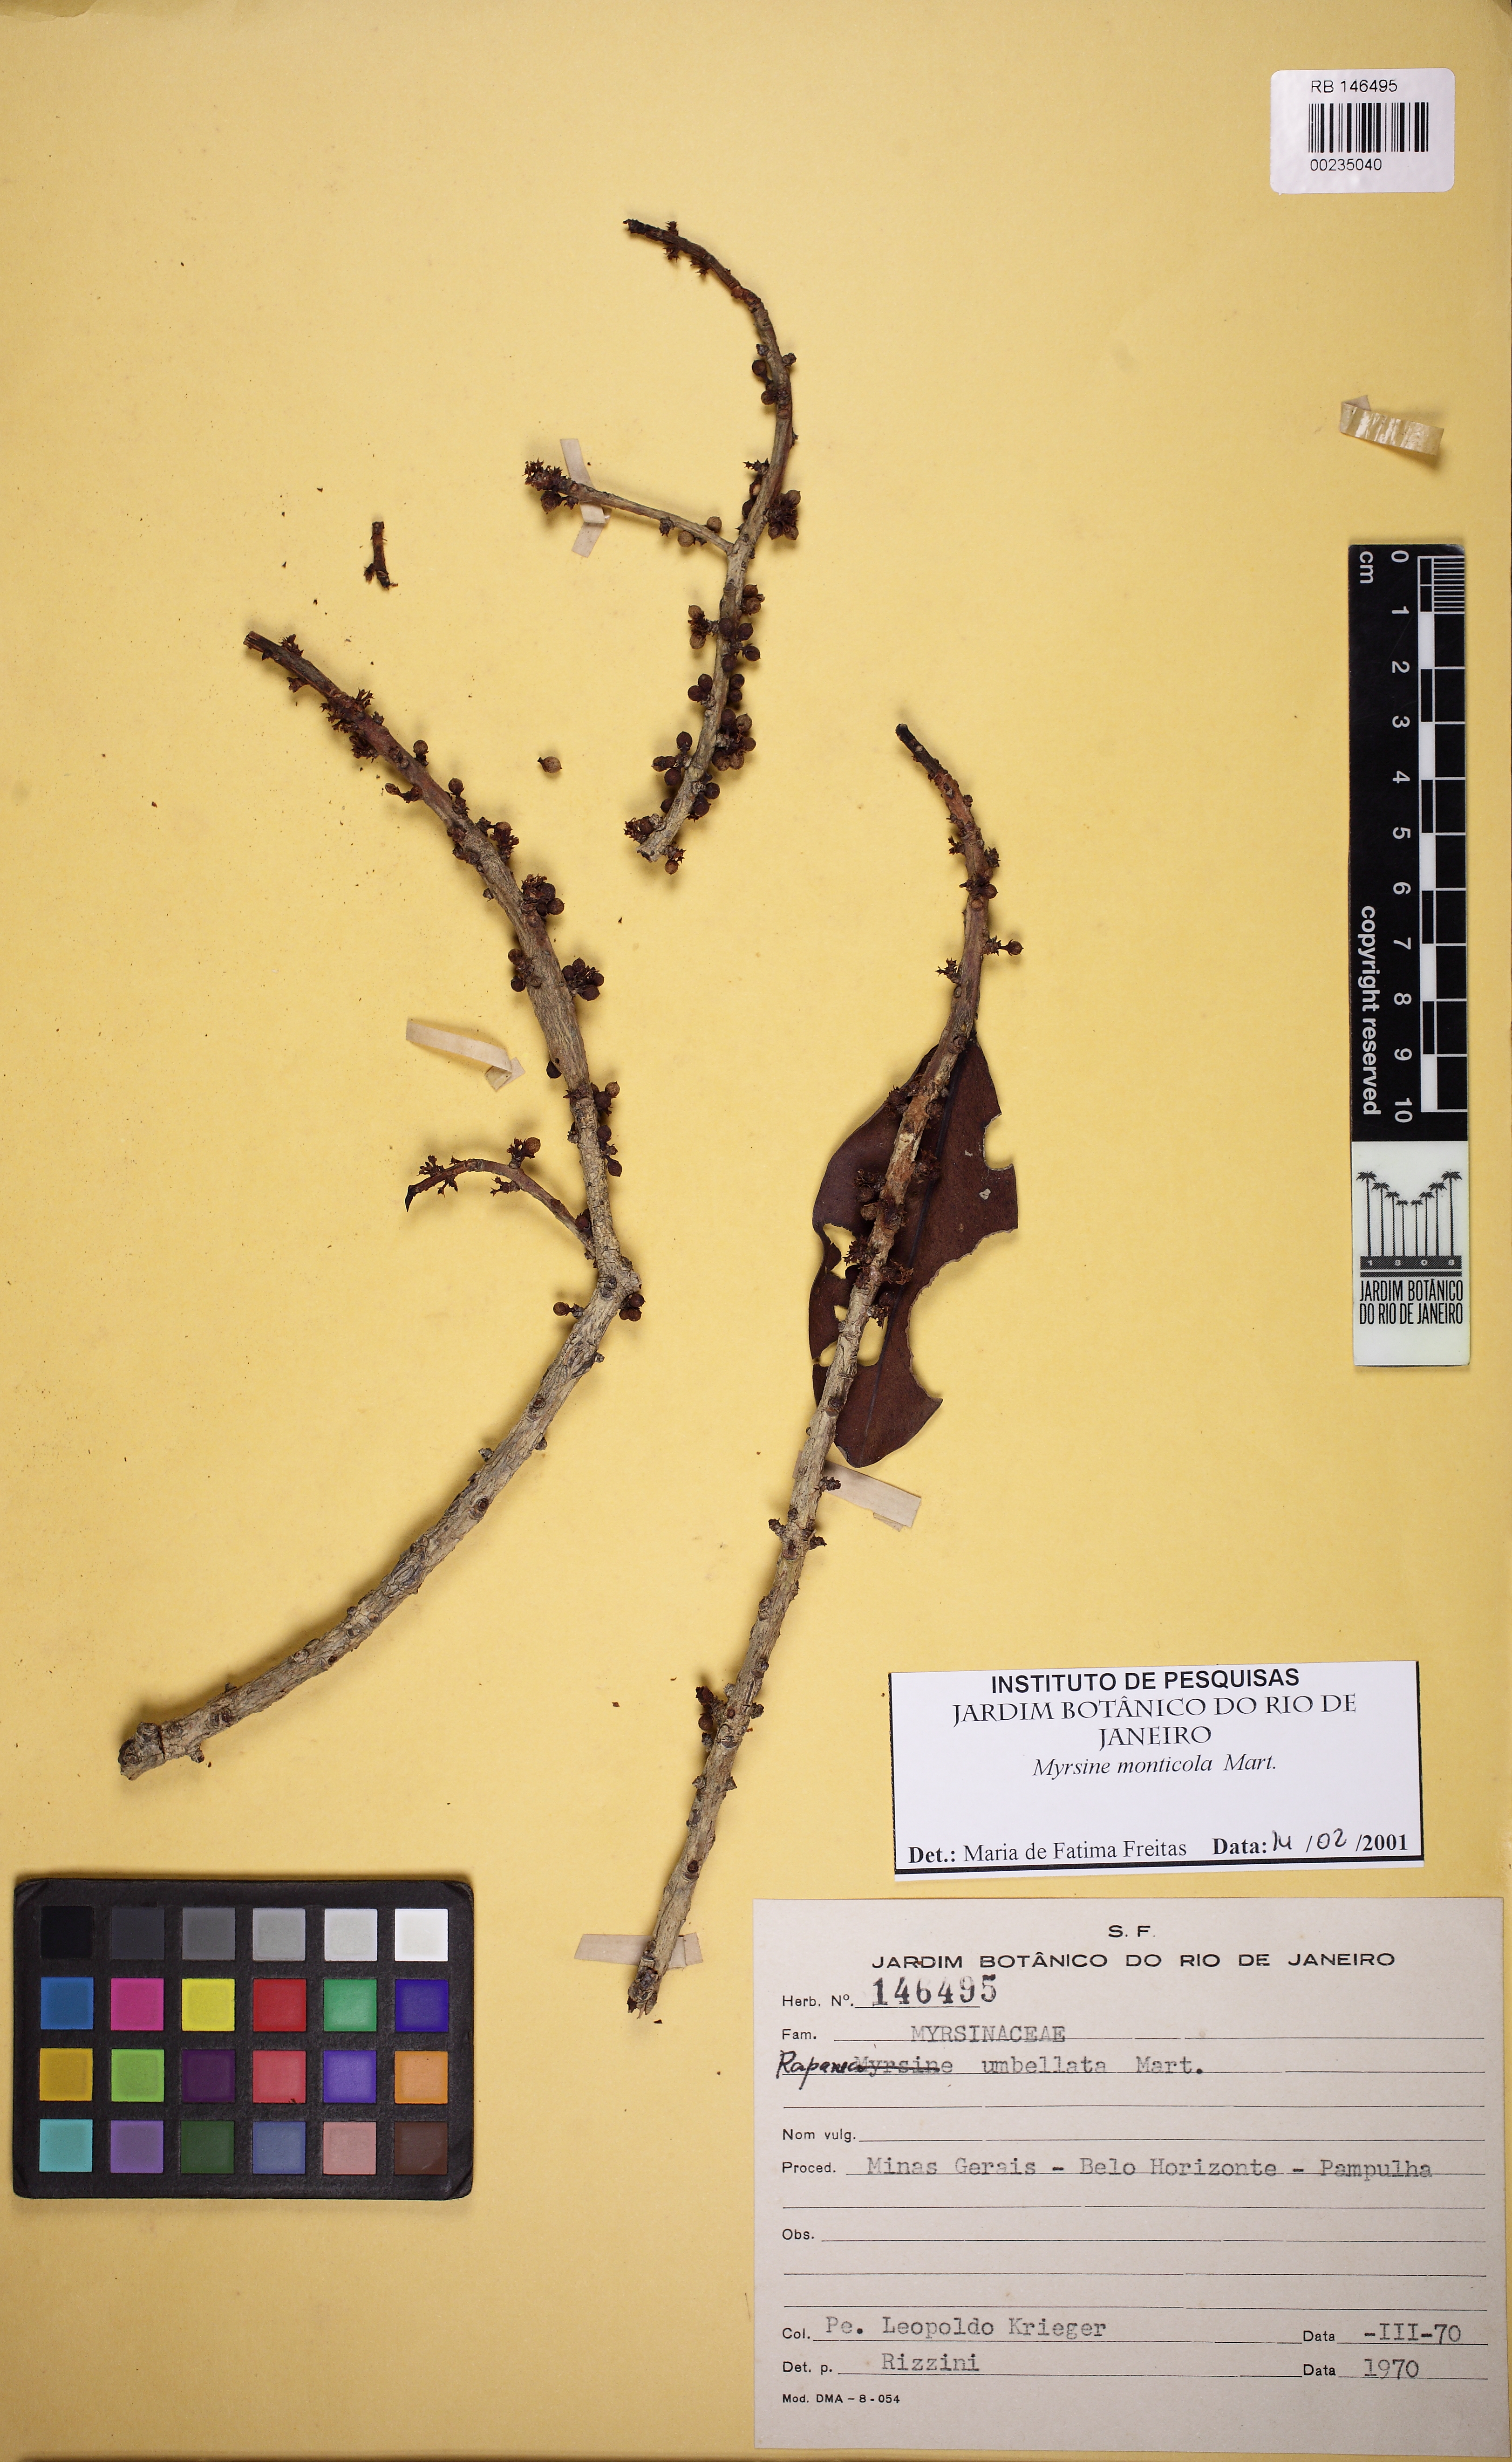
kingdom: Plantae
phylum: Tracheophyta
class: Magnoliopsida
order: Ericales
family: Primulaceae
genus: Myrsine
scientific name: Myrsine monticola
